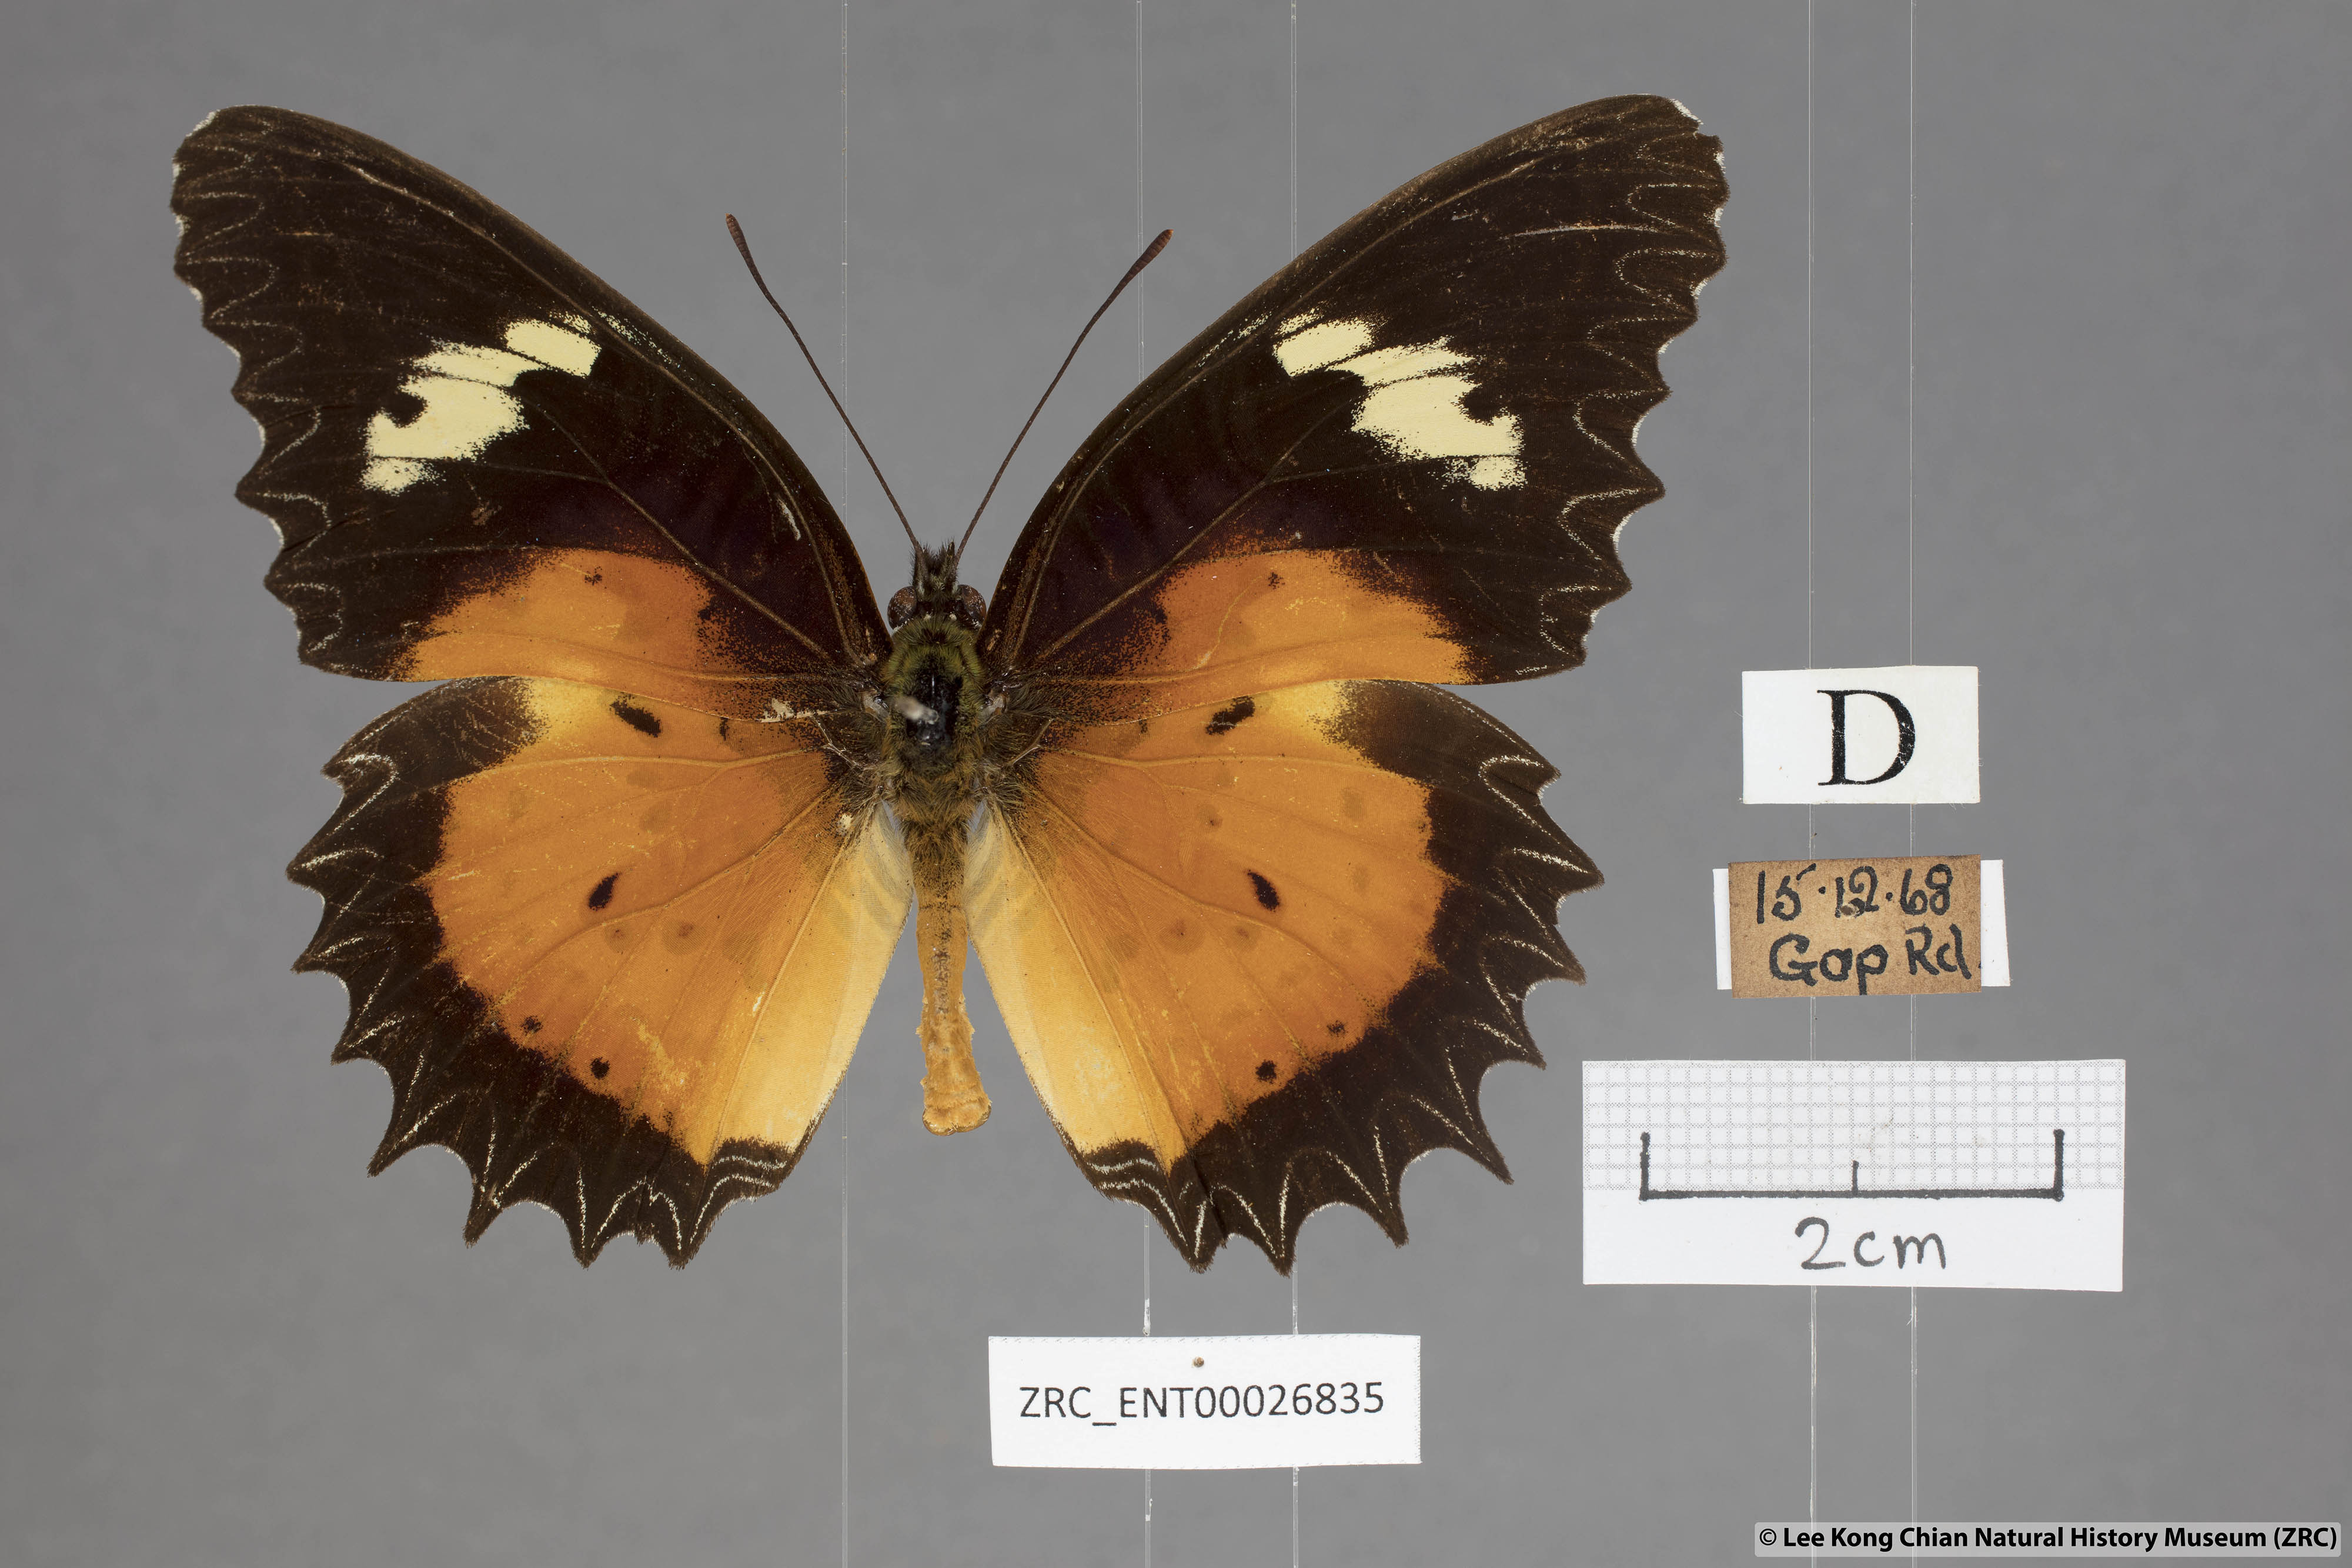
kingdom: Animalia
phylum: Arthropoda
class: Insecta
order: Lepidoptera
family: Nymphalidae
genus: Cethosia
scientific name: Cethosia hypsea
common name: Malayan lacewing butterfly
